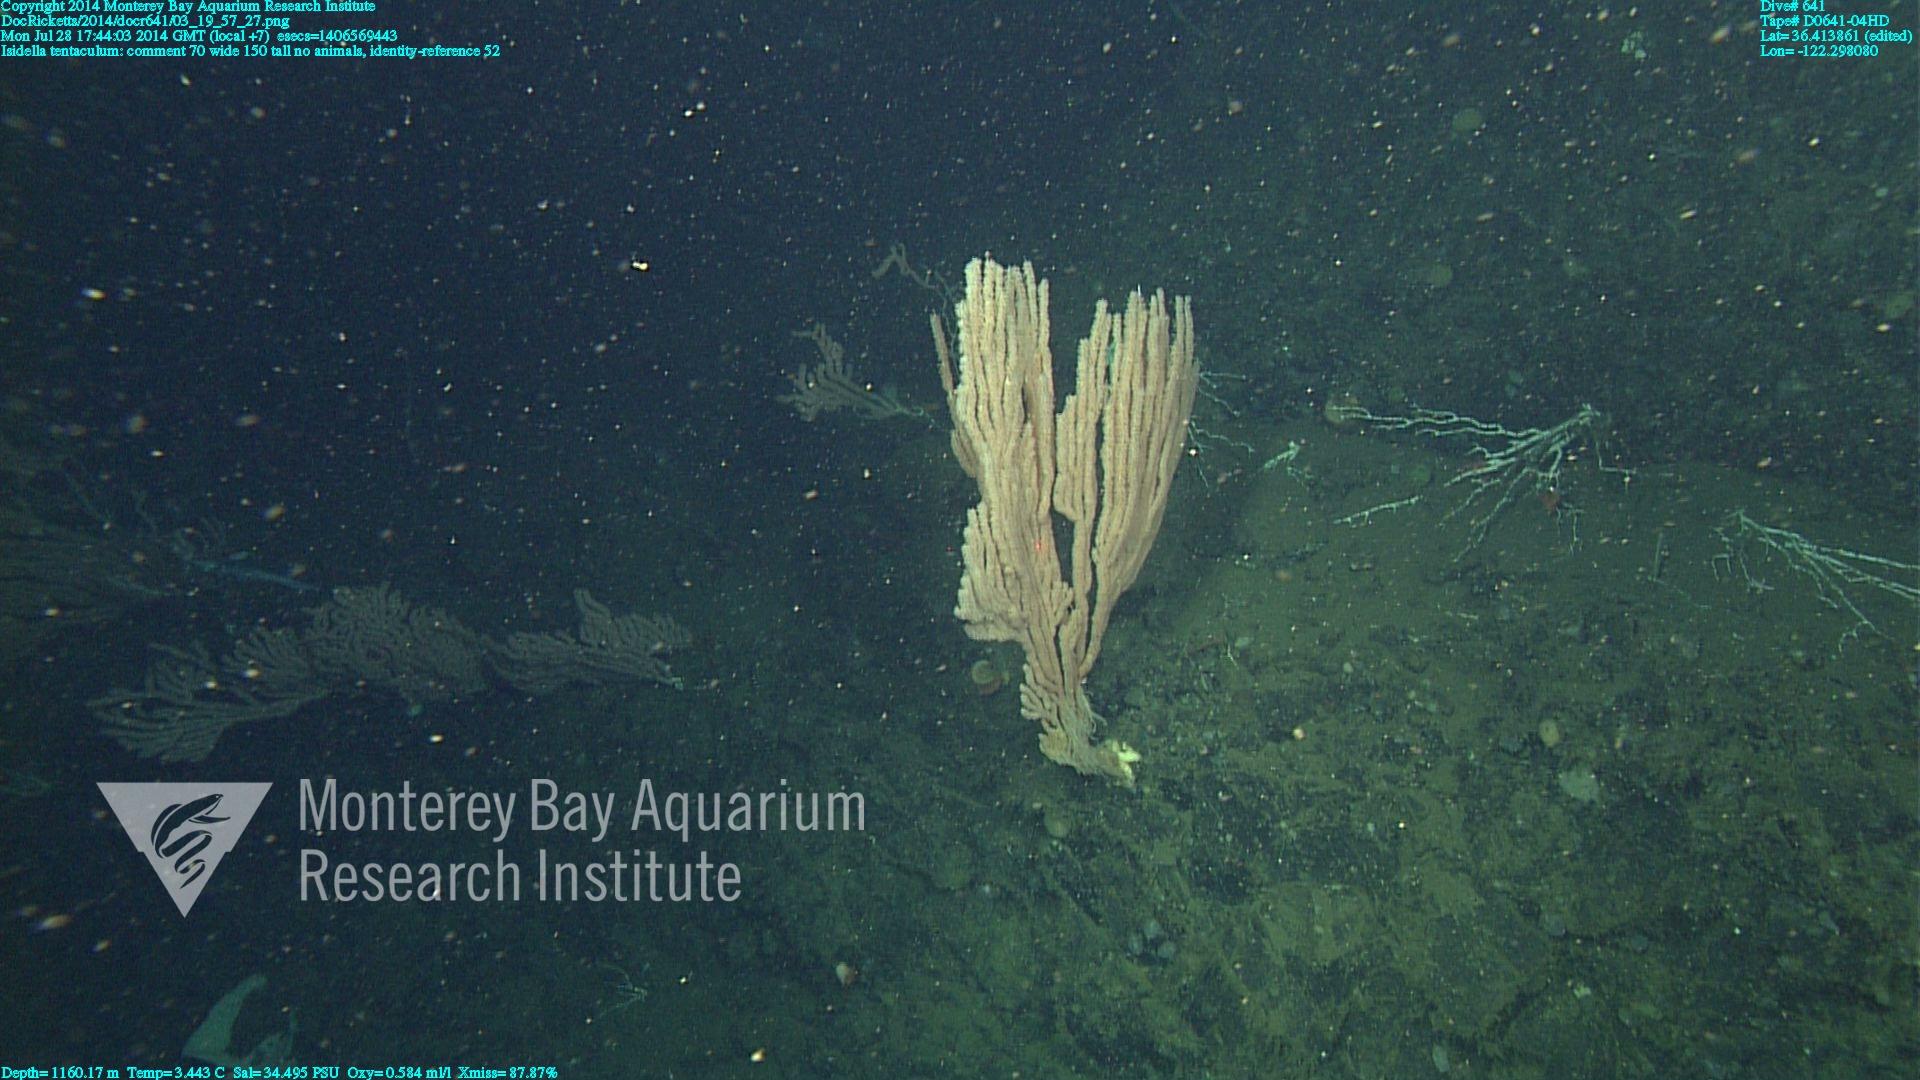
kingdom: Animalia
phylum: Cnidaria
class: Anthozoa
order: Scleralcyonacea
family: Keratoisididae
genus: Isidella
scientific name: Isidella tentaculum
